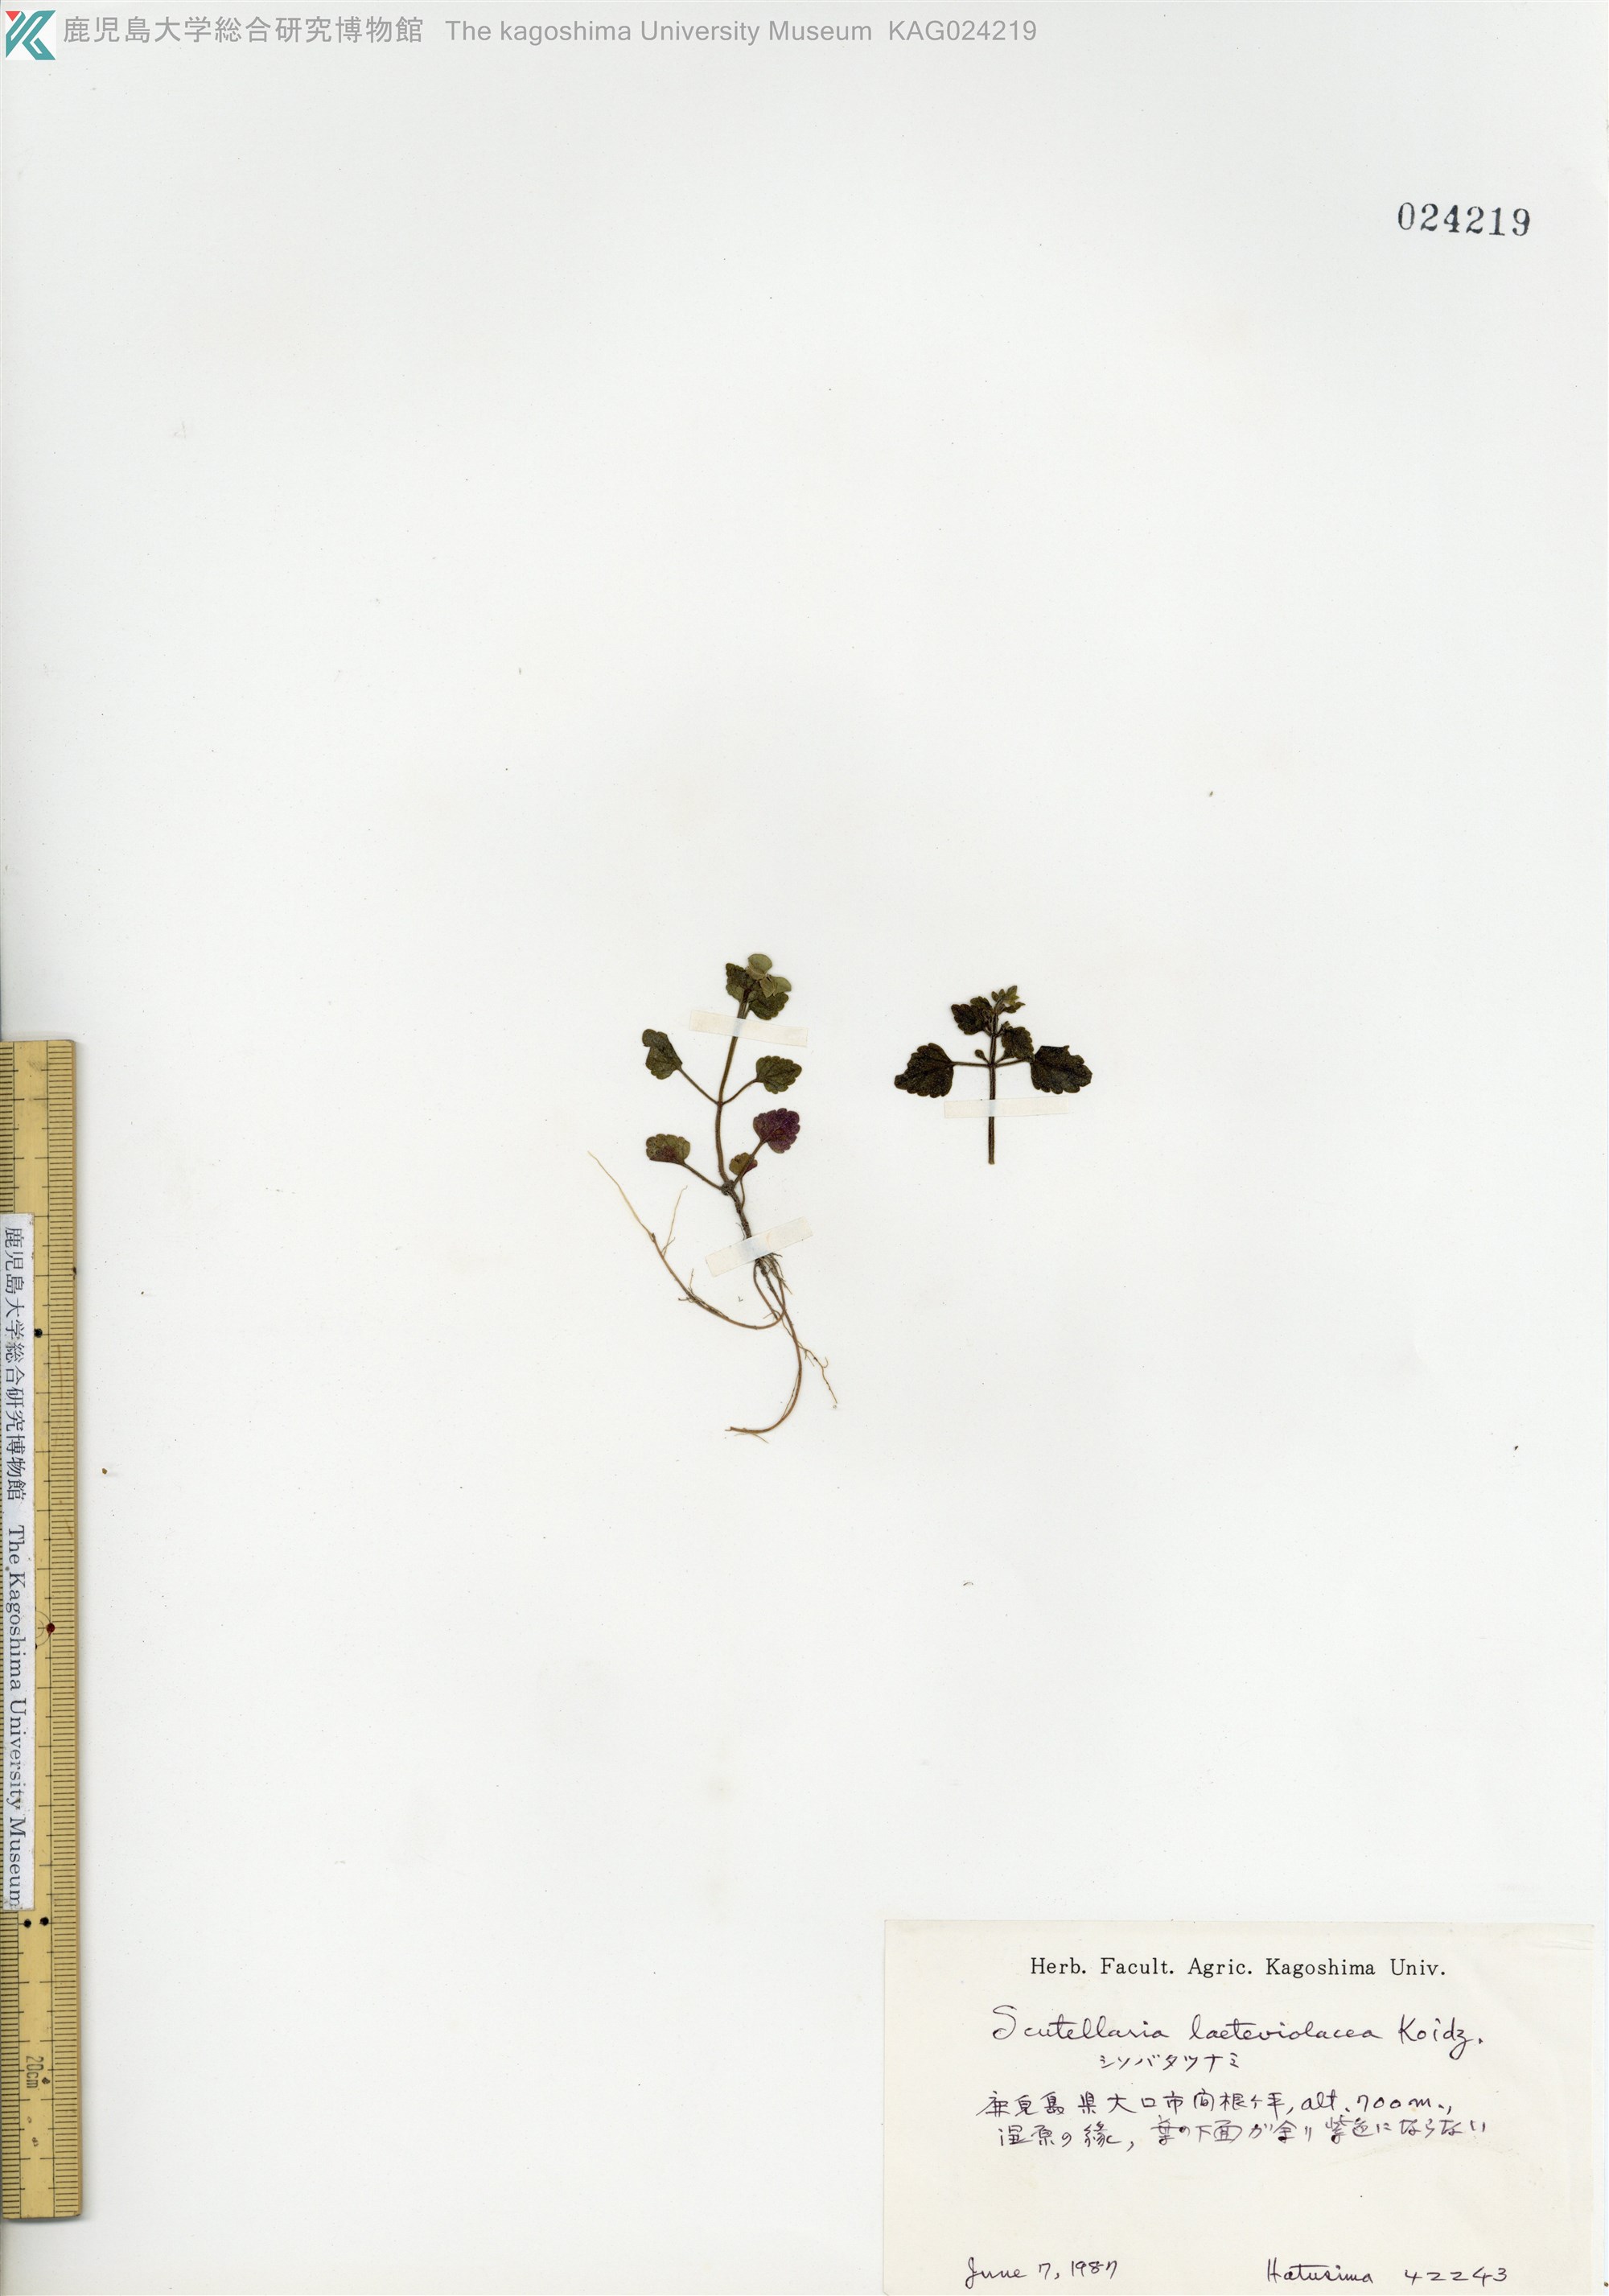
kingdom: Plantae
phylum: Tracheophyta
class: Magnoliopsida
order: Lamiales
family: Lamiaceae
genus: Scutellaria
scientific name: Scutellaria laeteviolacea
